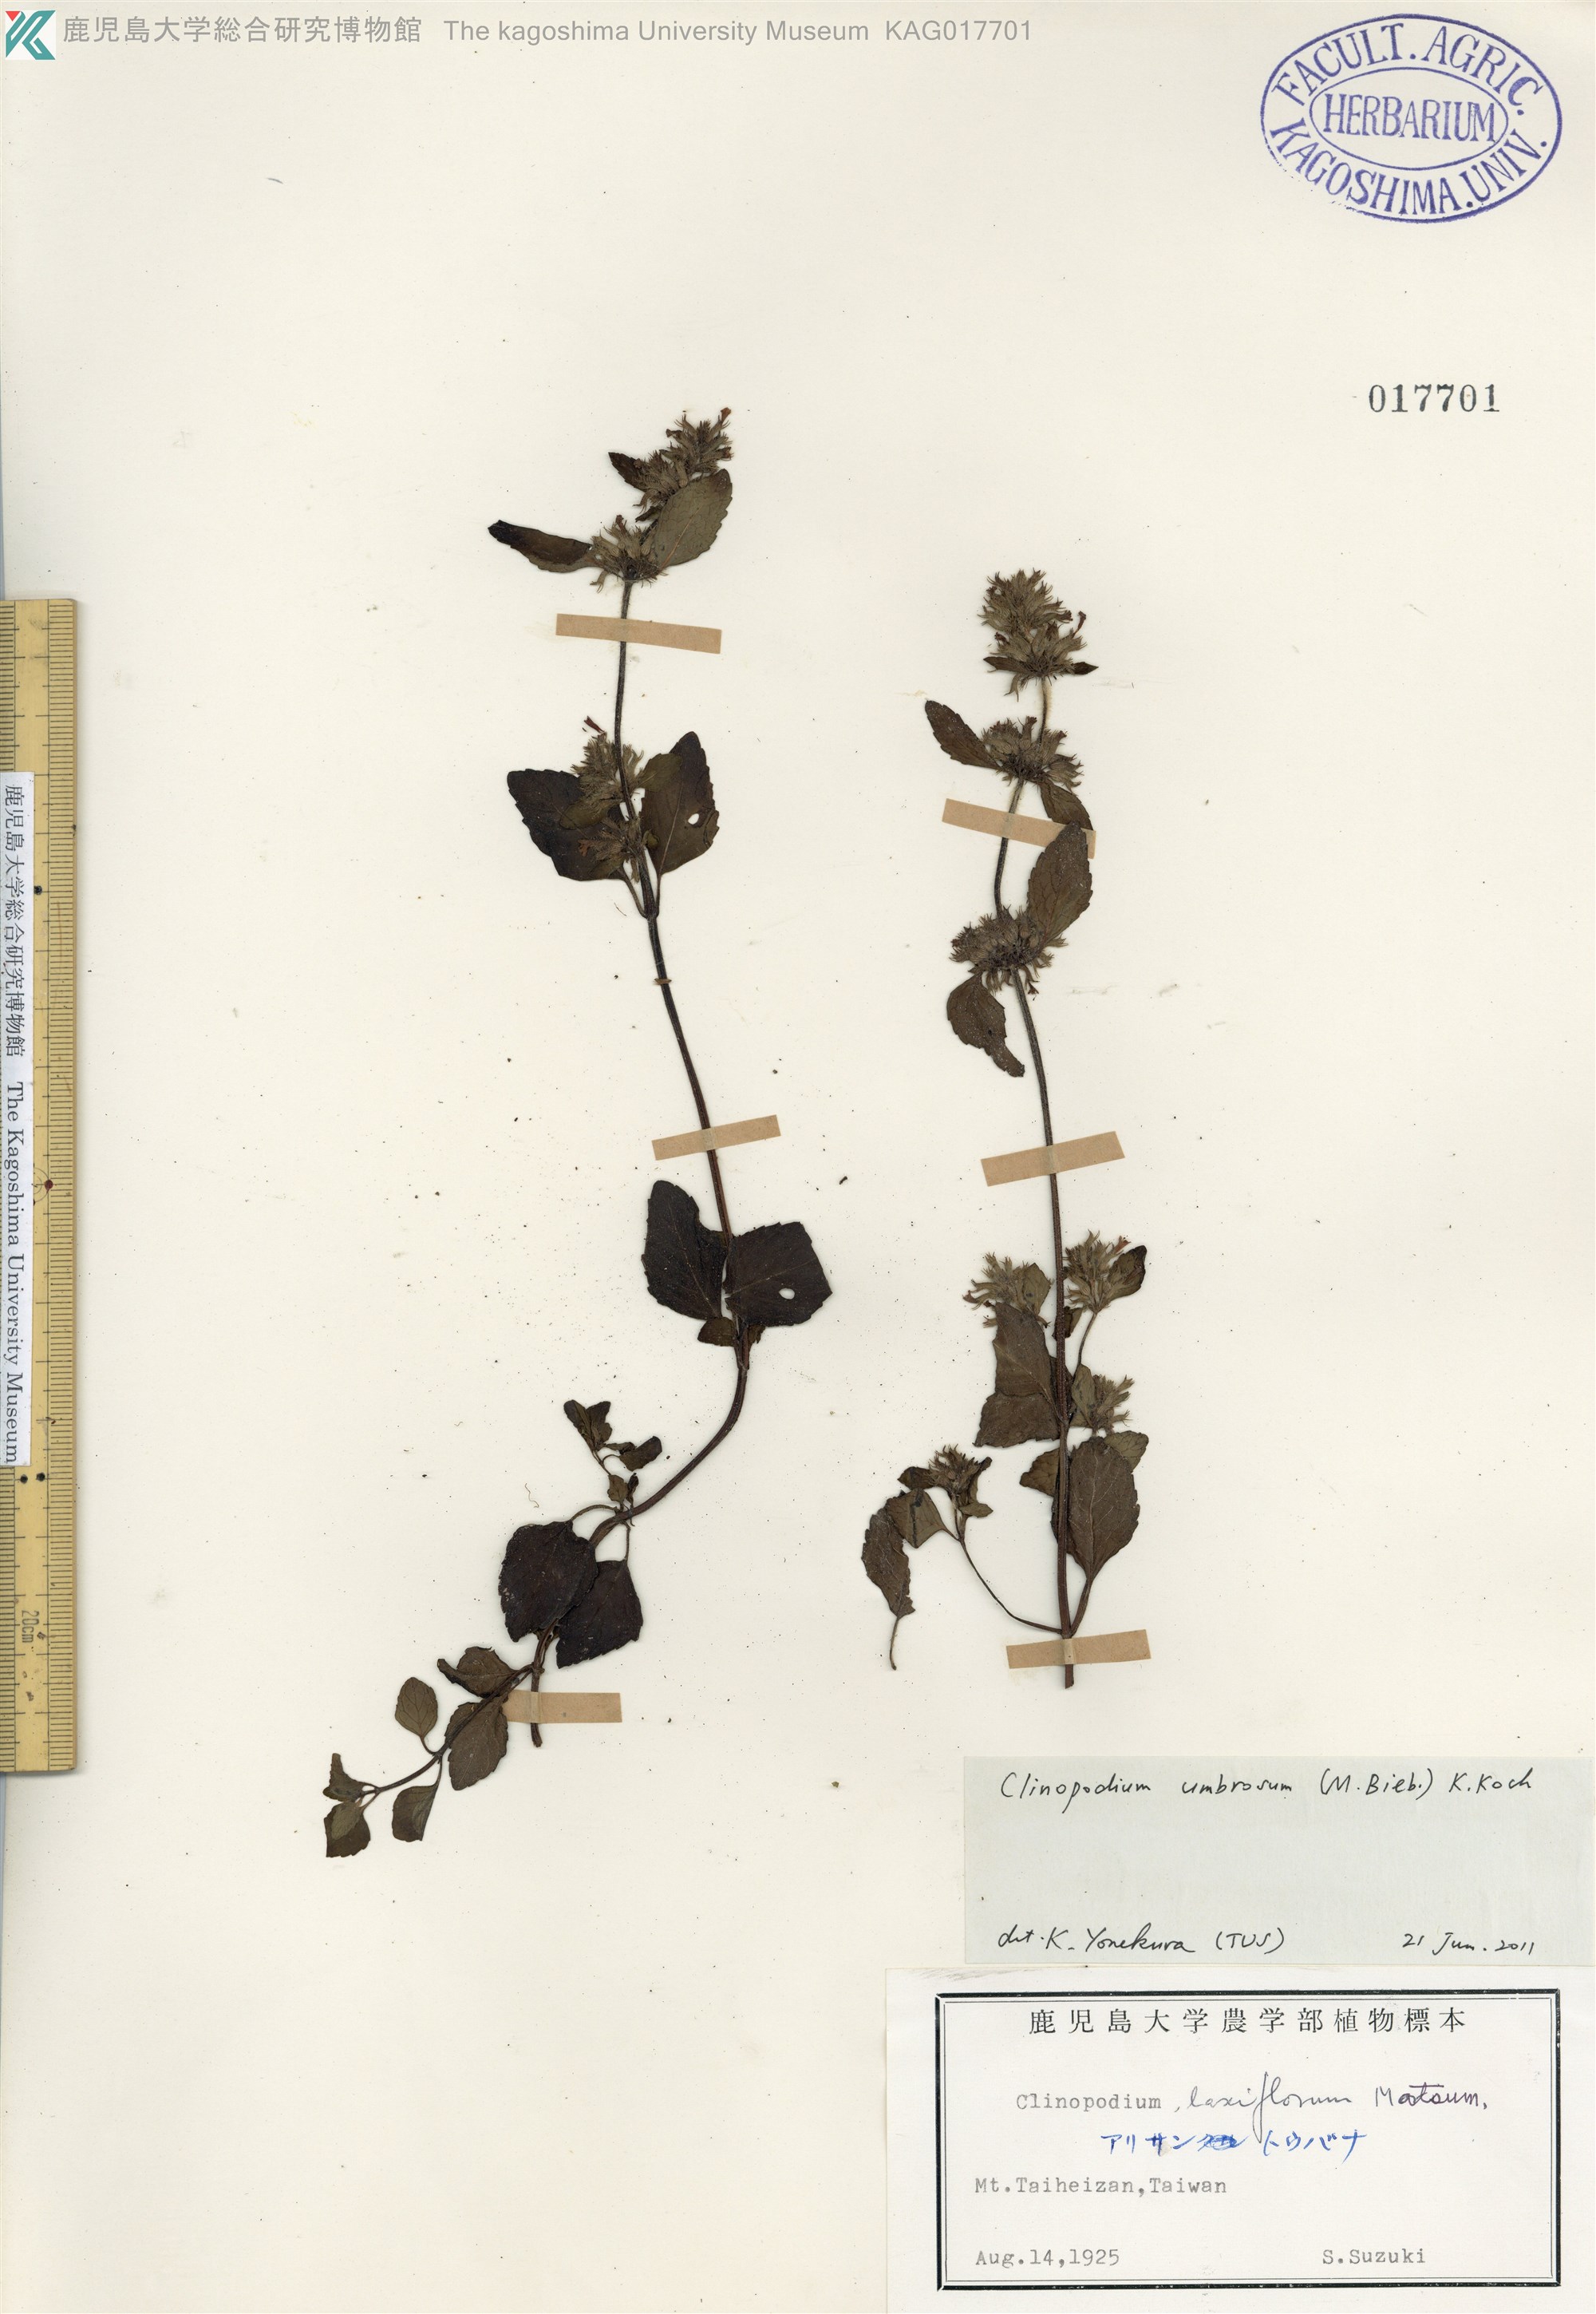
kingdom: Plantae
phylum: Tracheophyta
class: Magnoliopsida
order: Lamiales
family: Lamiaceae
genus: Clinopodium
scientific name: Clinopodium umbrosum
